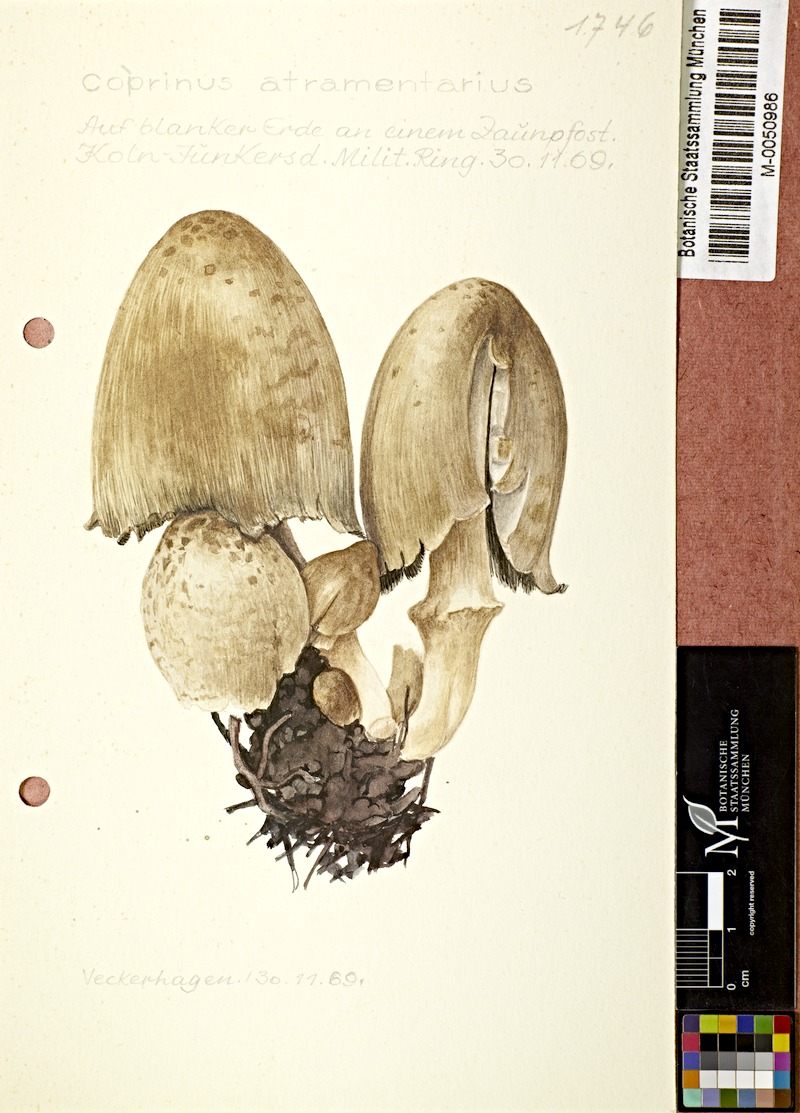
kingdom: Fungi
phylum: Basidiomycota
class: Agaricomycetes
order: Agaricales
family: Psathyrellaceae
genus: Coprinopsis
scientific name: Coprinopsis atramentaria
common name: Common ink-cap
